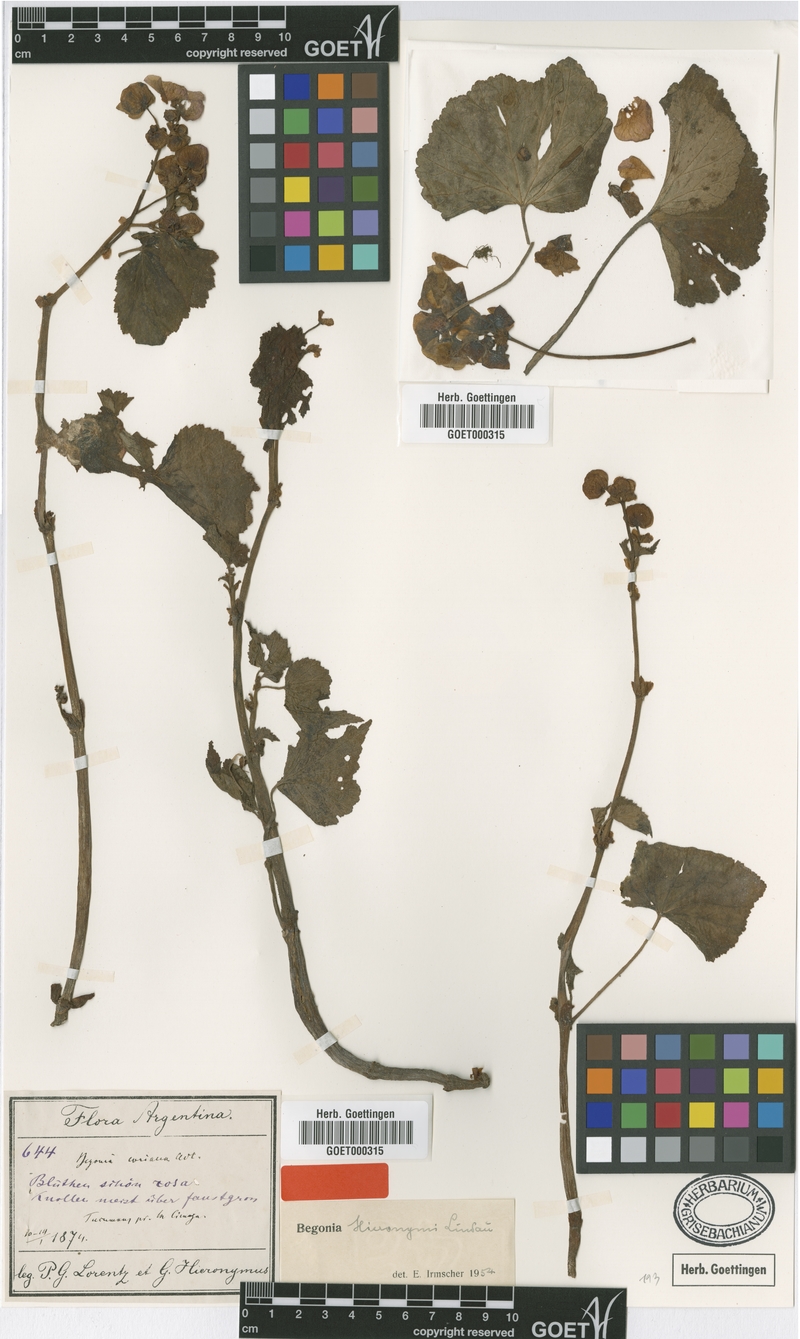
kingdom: Plantae
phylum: Tracheophyta
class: Magnoliopsida
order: Cucurbitales
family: Begoniaceae
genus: Begonia
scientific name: Begonia micranthera
